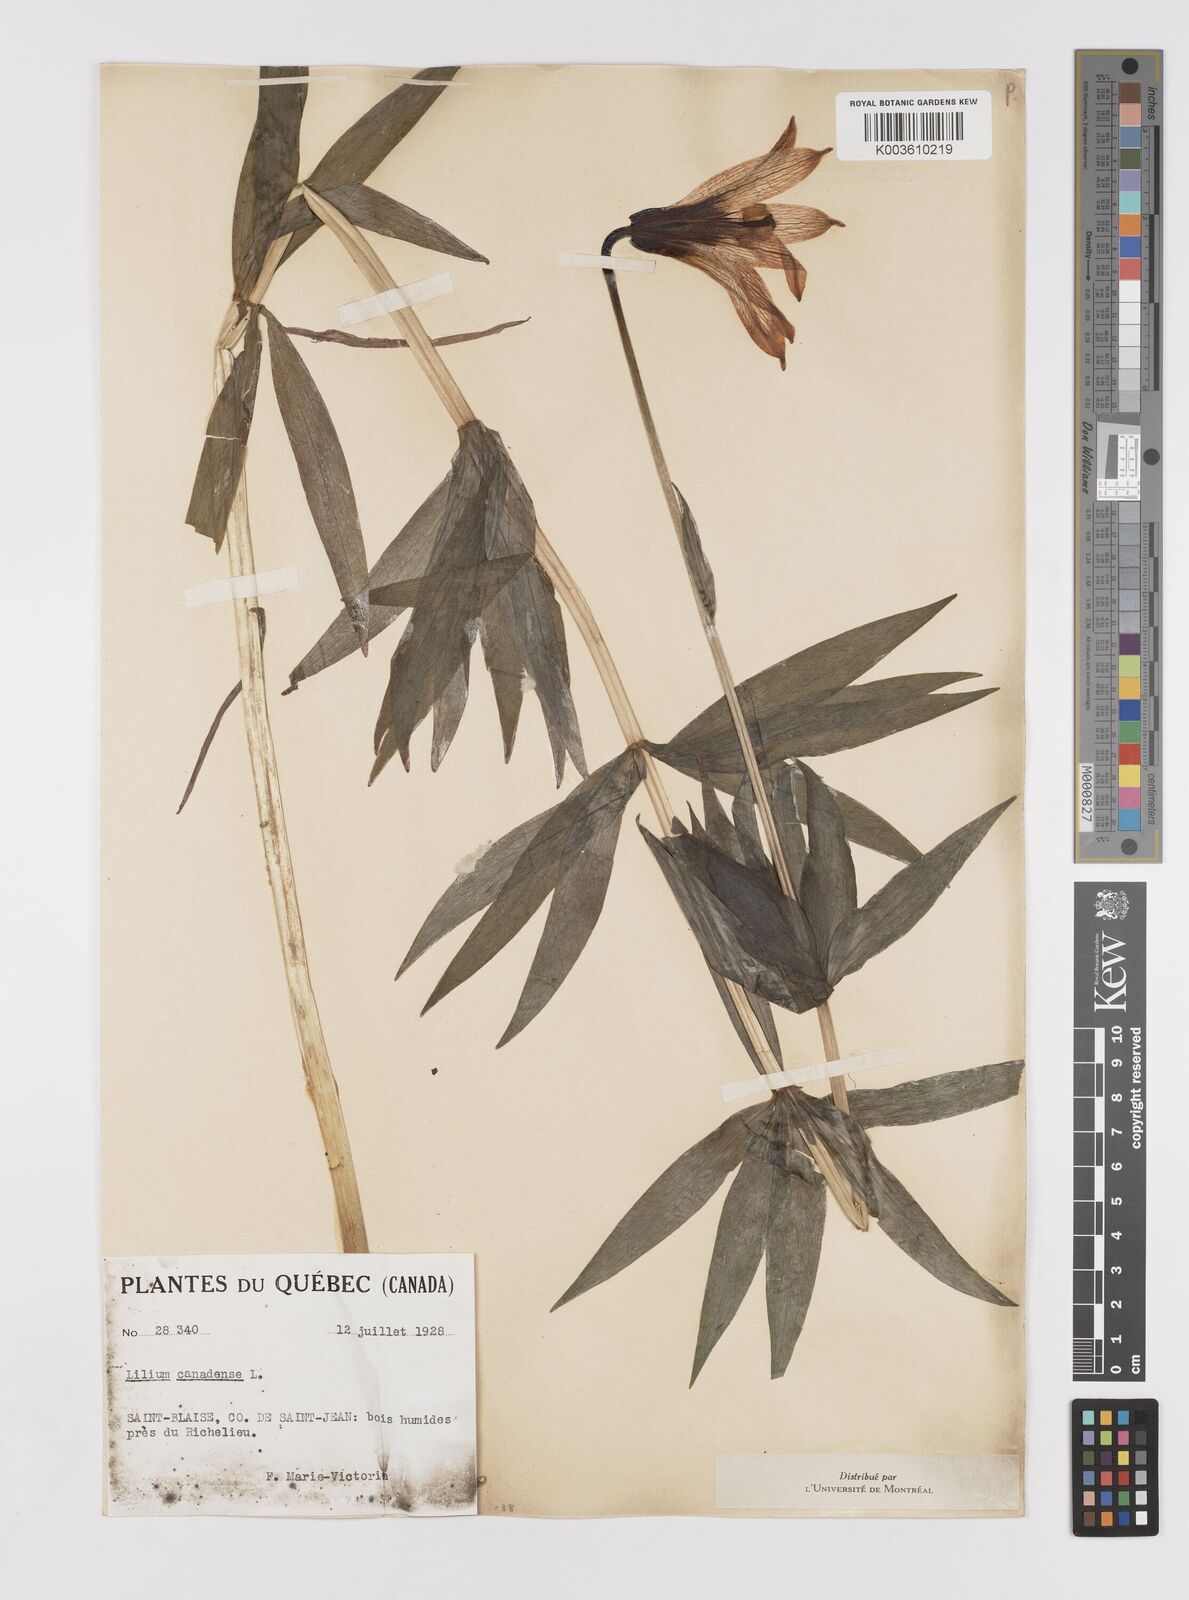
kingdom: Plantae
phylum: Tracheophyta
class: Liliopsida
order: Liliales
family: Liliaceae
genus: Lilium
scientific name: Lilium canadense
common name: Canada lily
